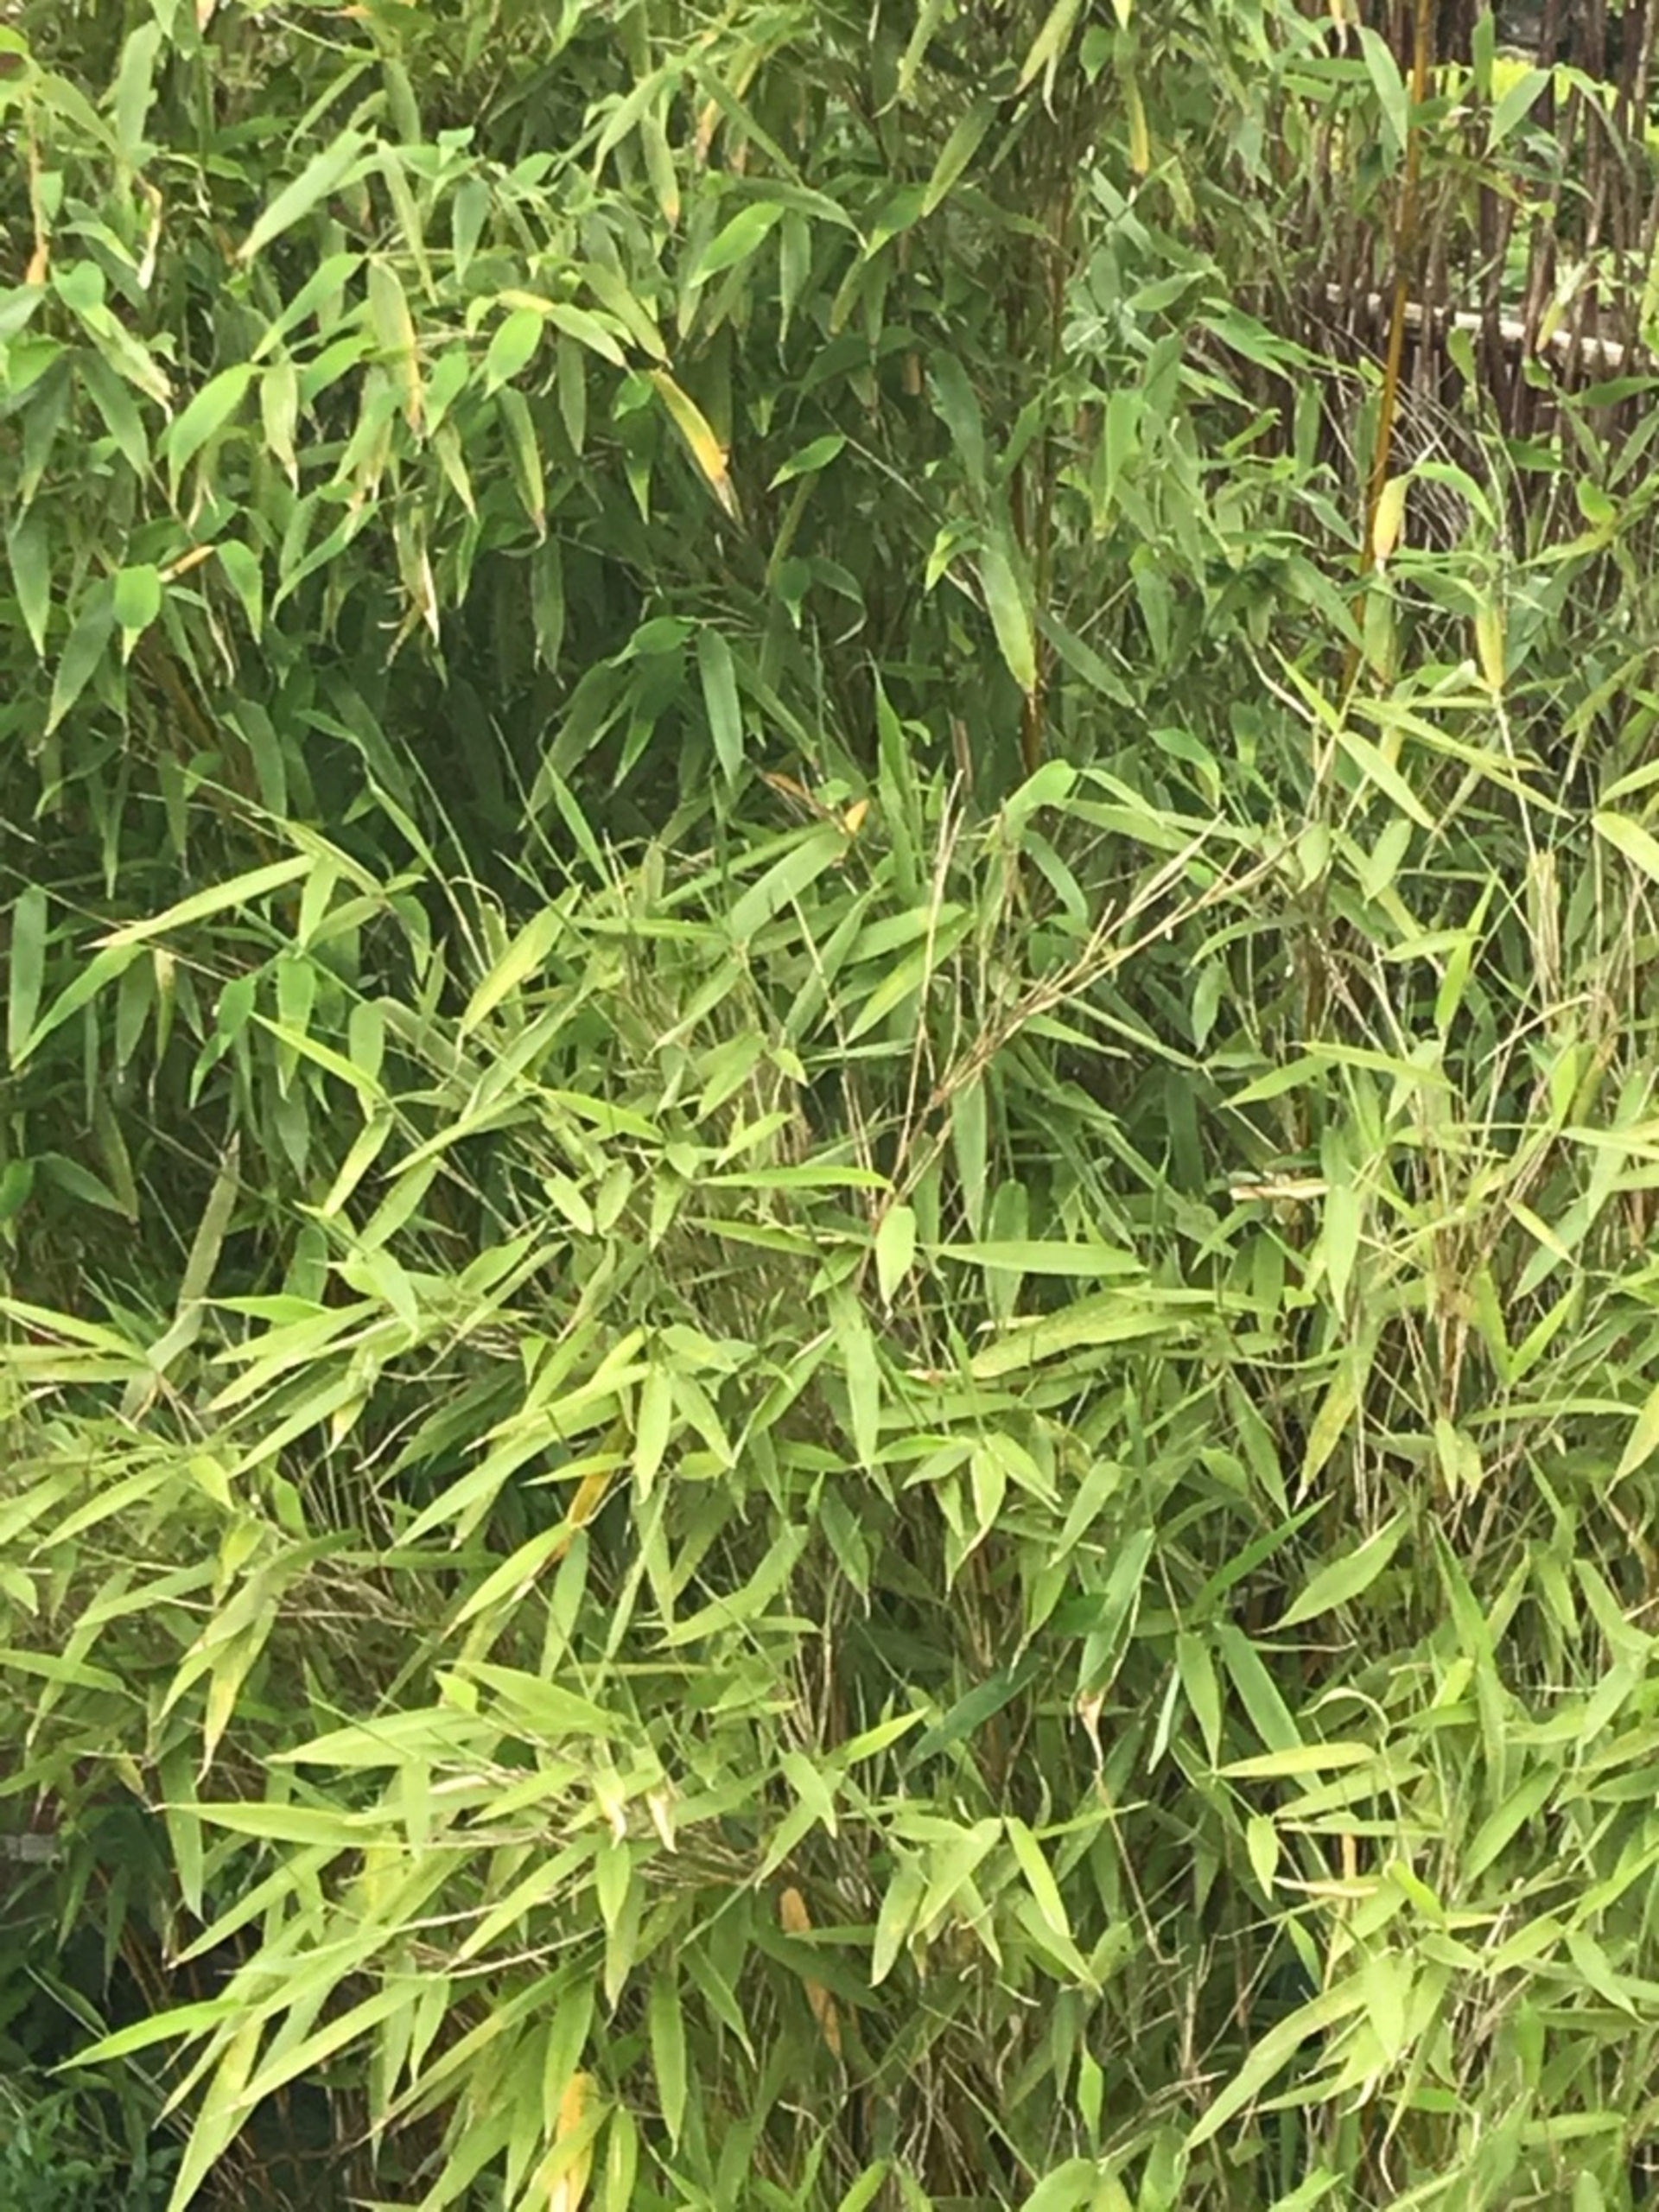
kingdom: Plantae
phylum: Tracheophyta
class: Liliopsida
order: Poales
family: Poaceae
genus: Fargesia
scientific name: Fargesia spathacea
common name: Sort bambus
